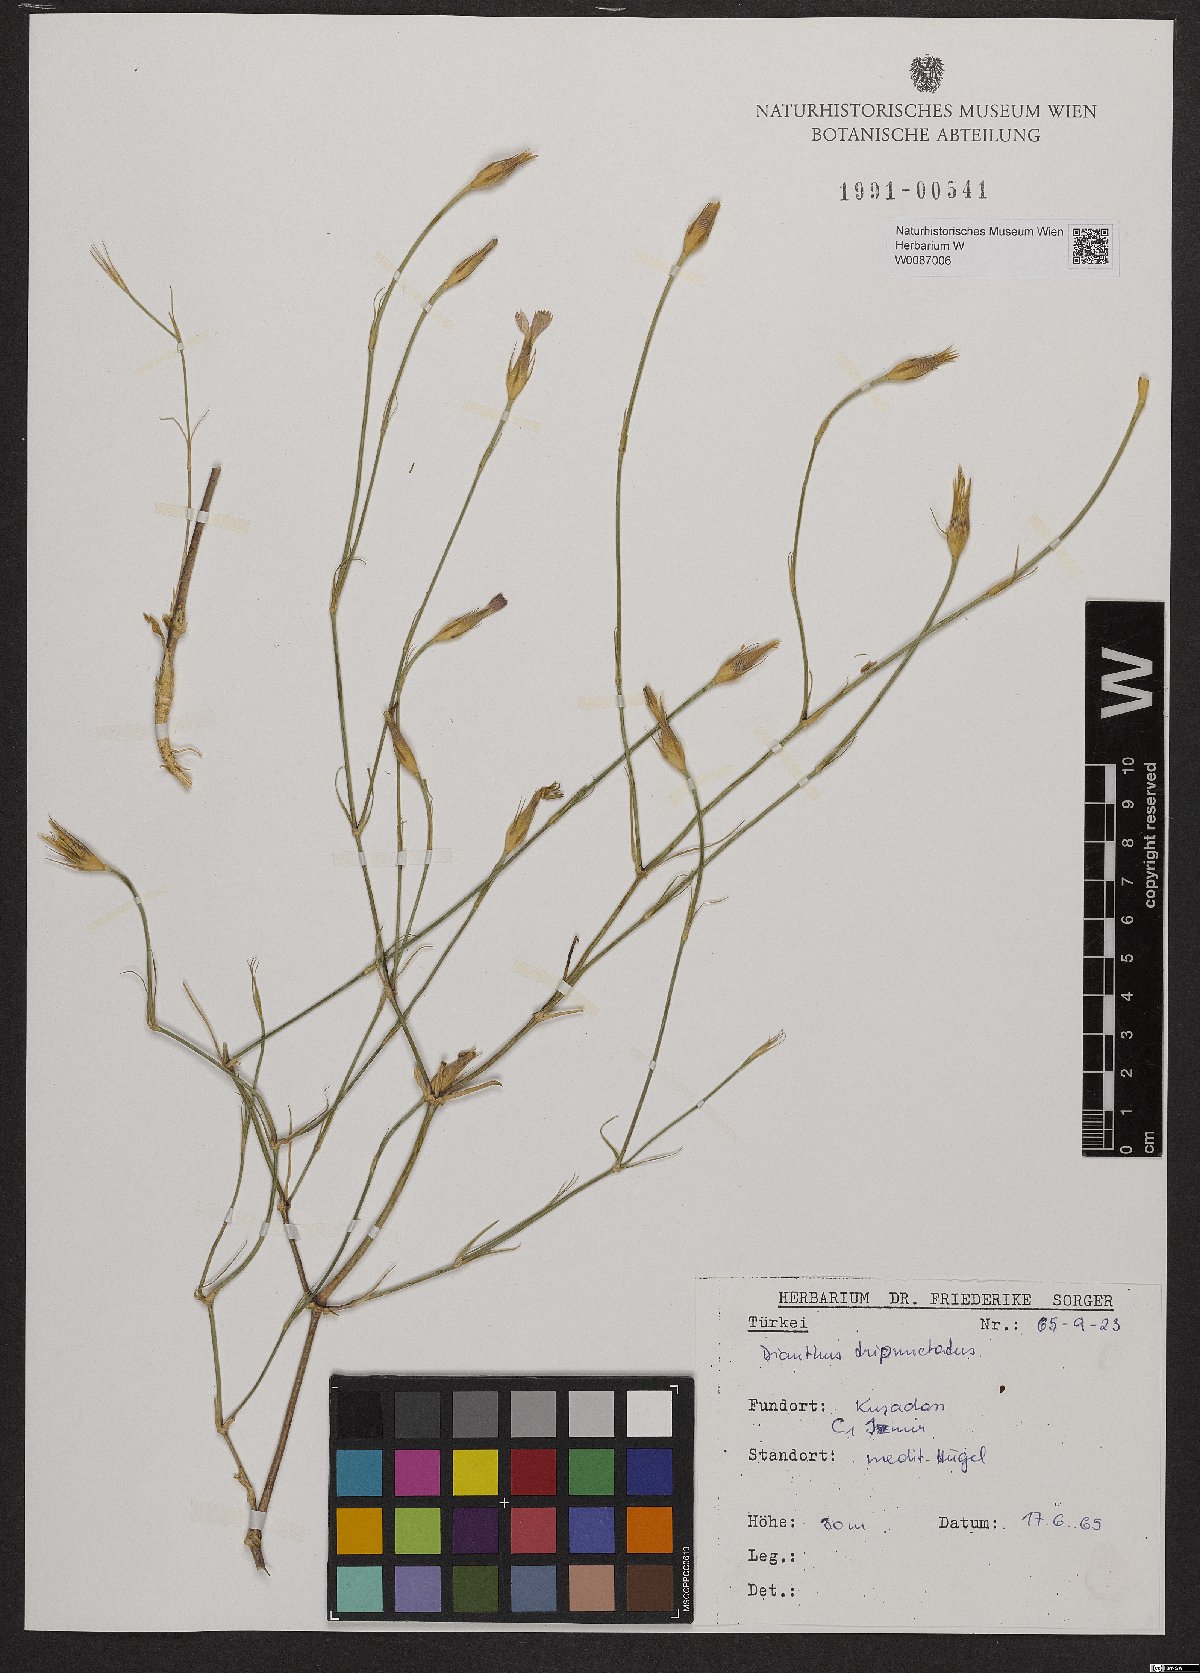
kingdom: Plantae
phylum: Tracheophyta
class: Magnoliopsida
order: Caryophyllales
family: Caryophyllaceae
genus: Dianthus
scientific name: Dianthus tripunctatus
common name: Three-spotted pink
